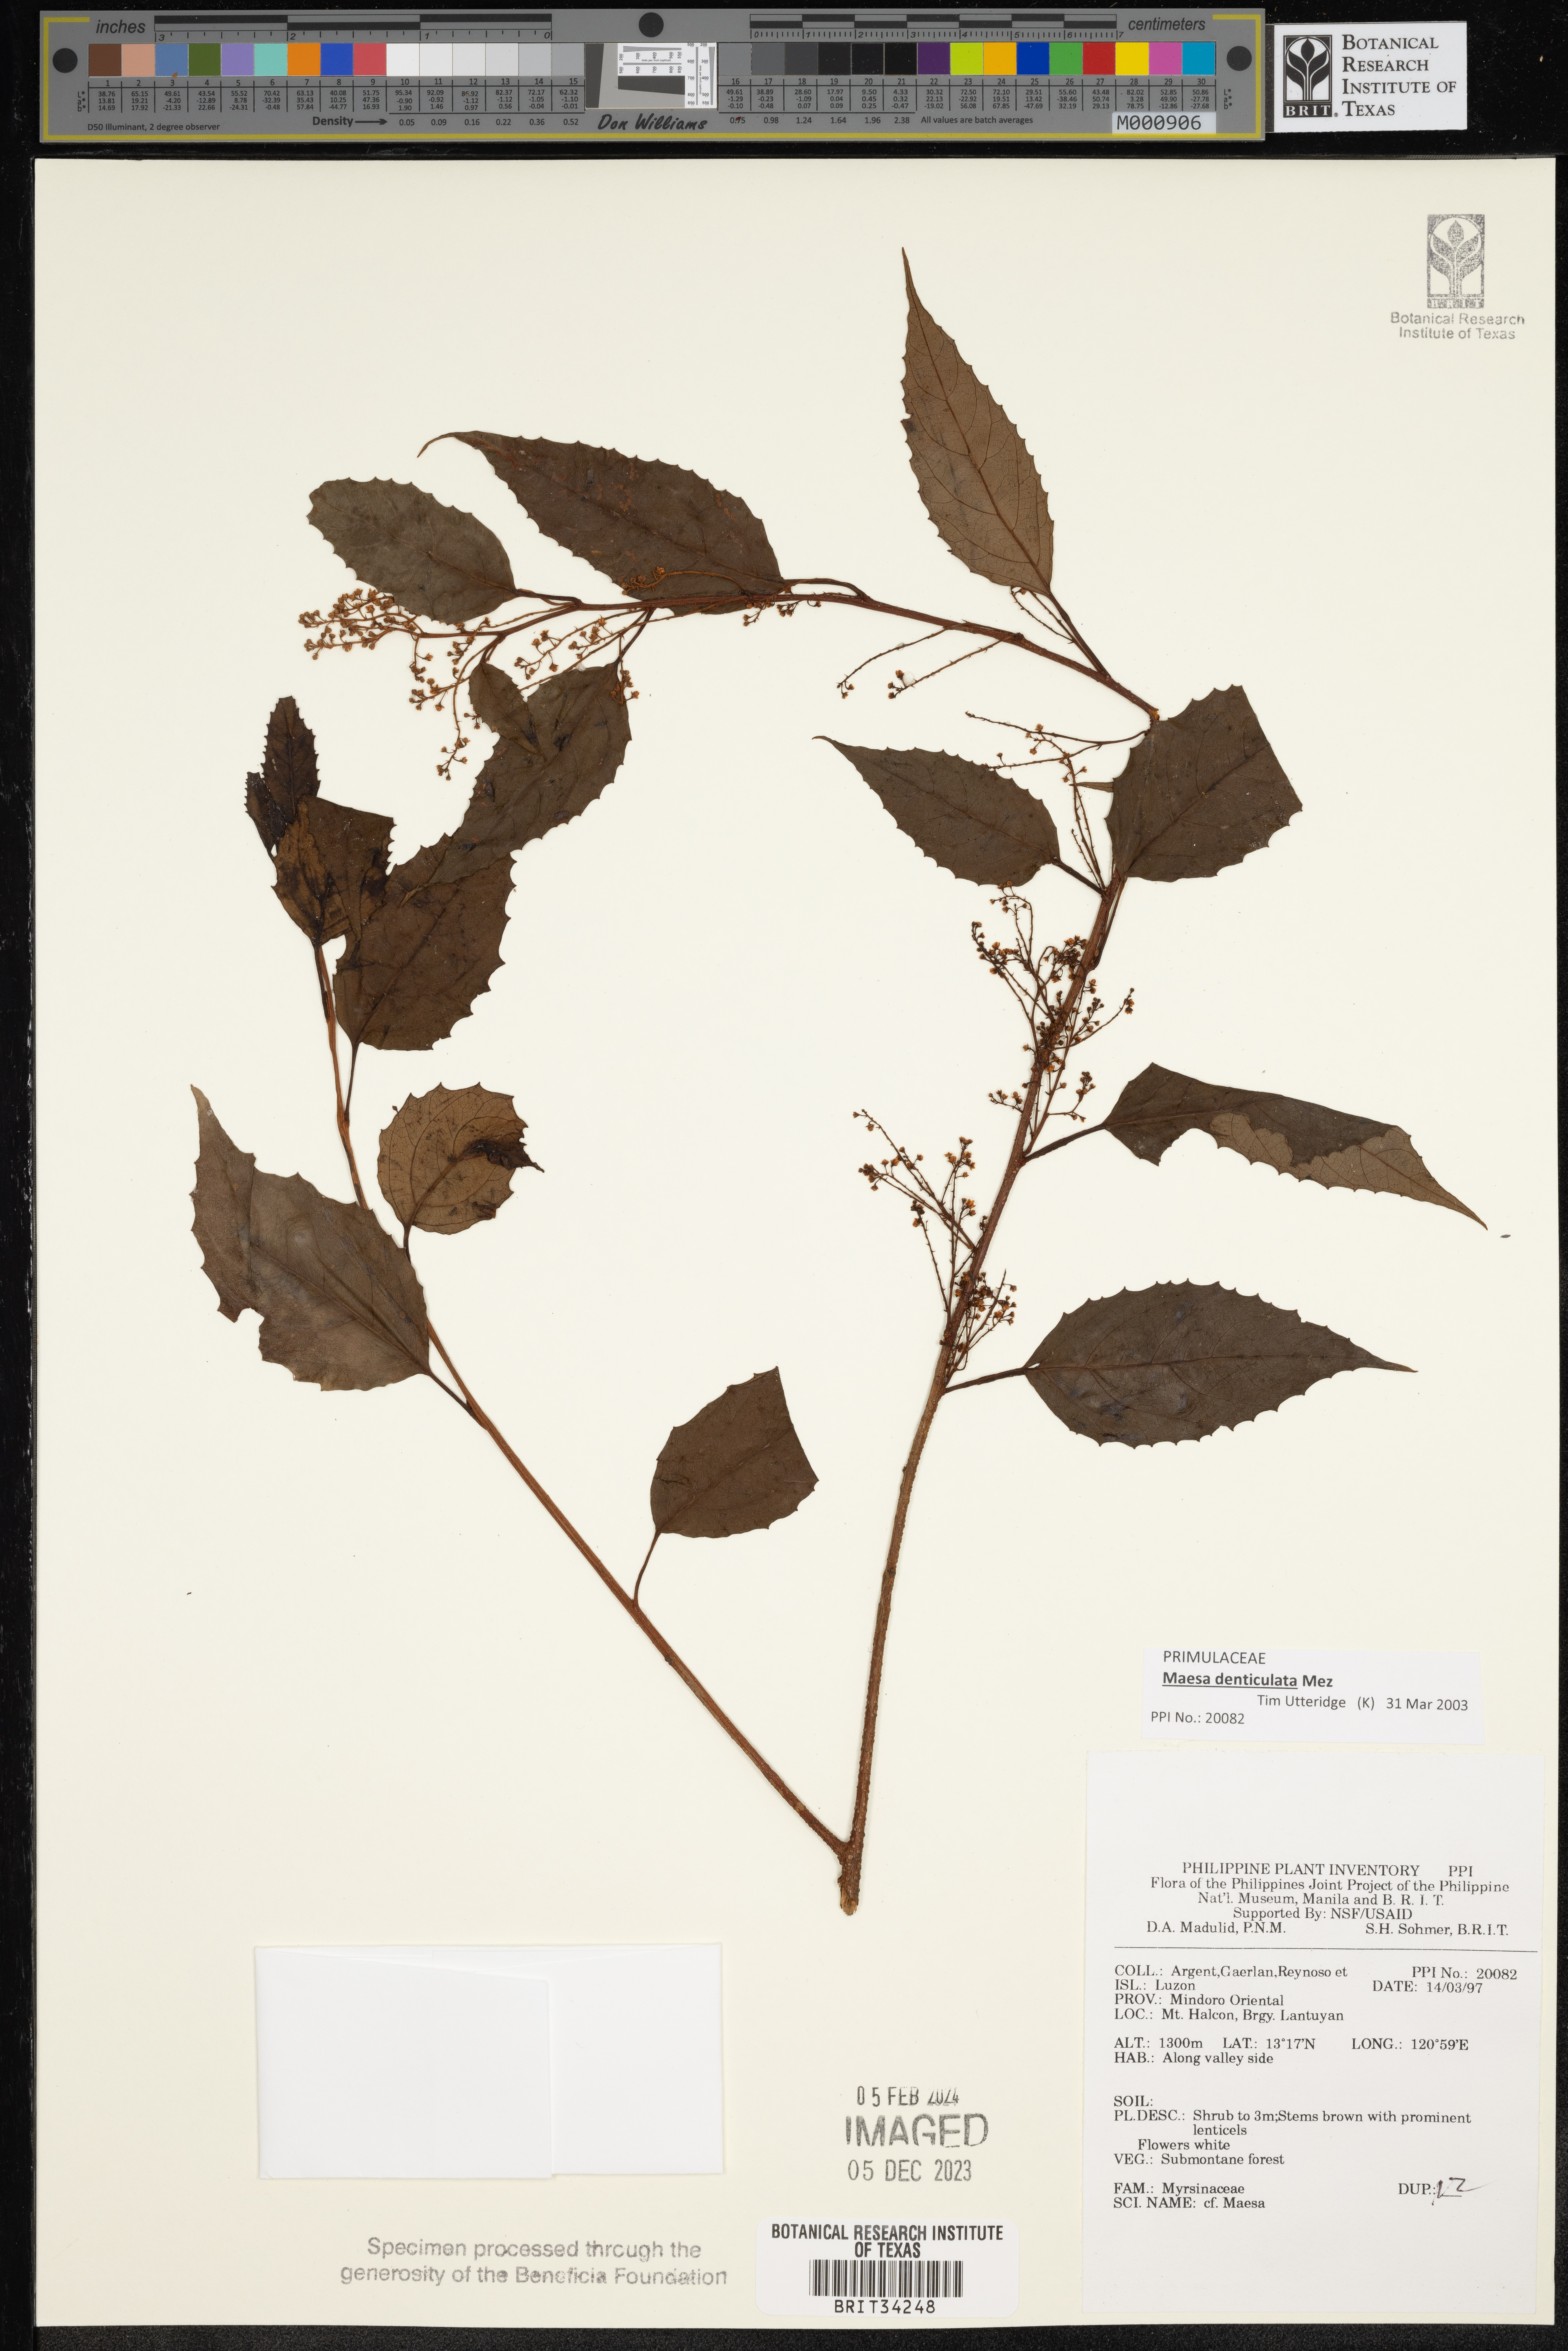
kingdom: Plantae
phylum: Tracheophyta
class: Magnoliopsida
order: Ericales
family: Primulaceae
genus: Maesa
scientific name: Maesa
